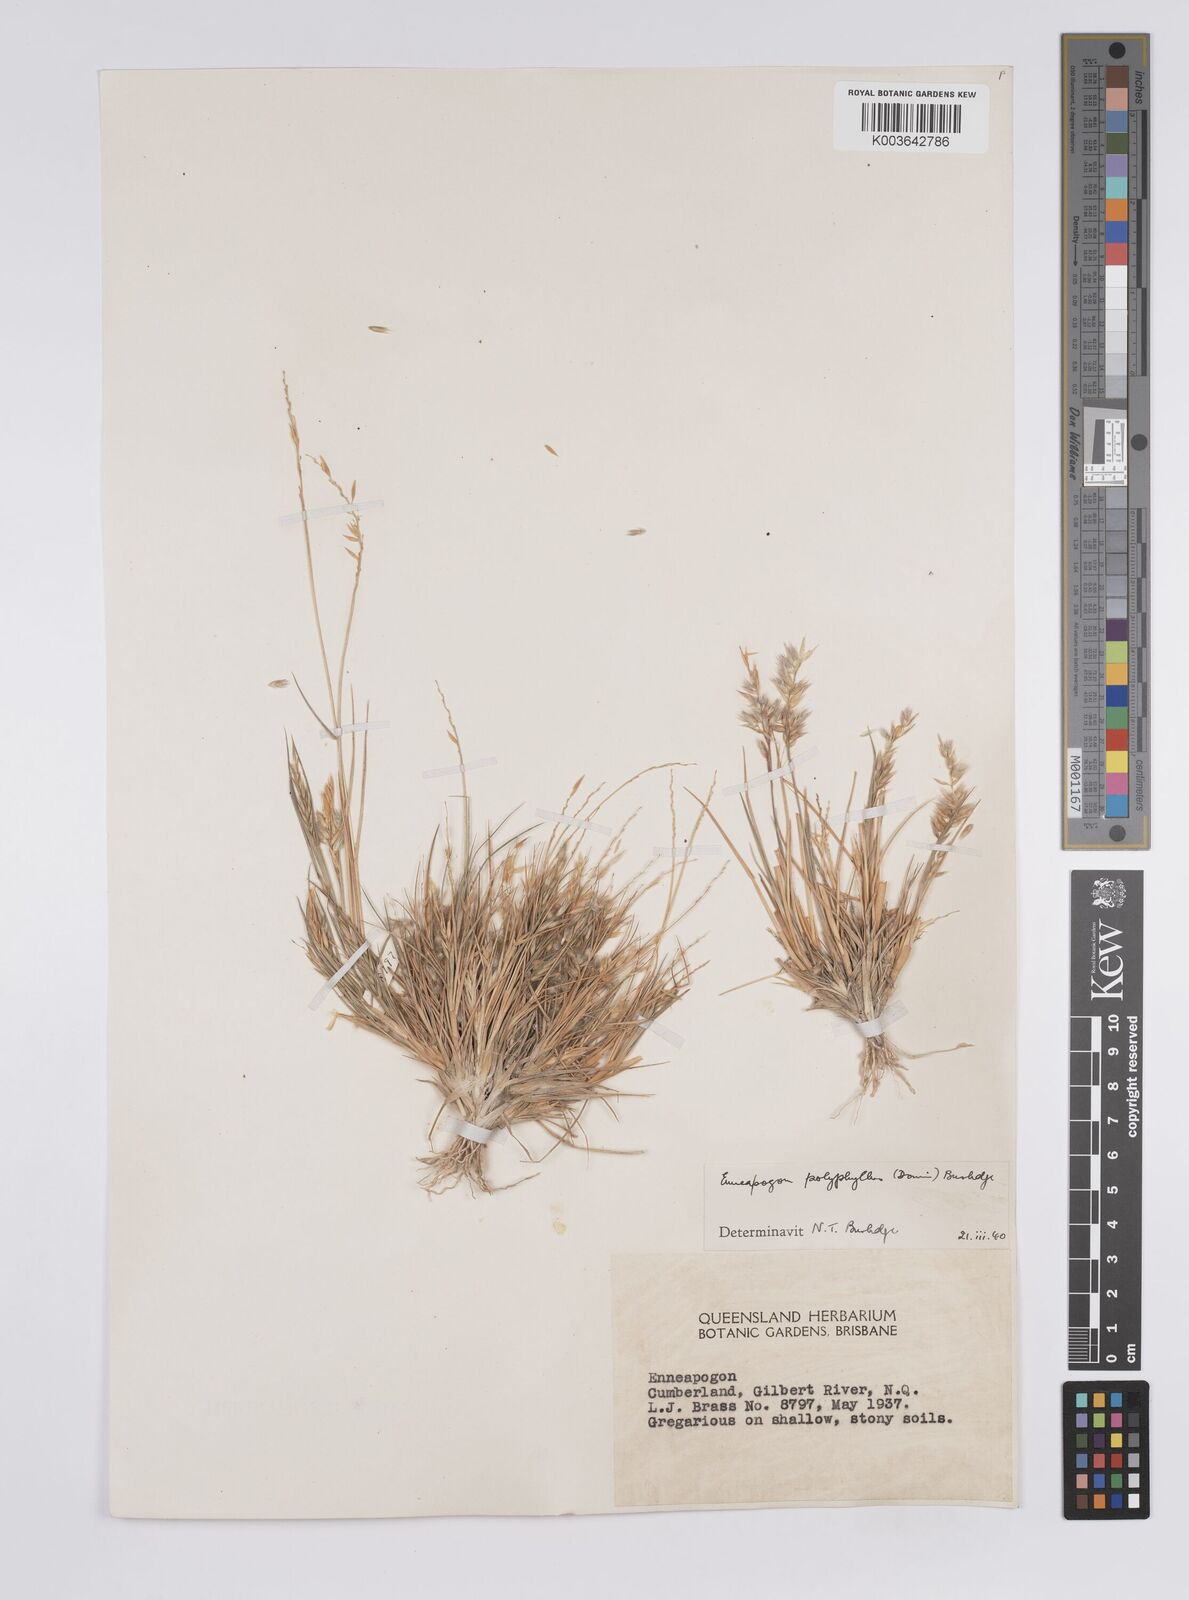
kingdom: Plantae
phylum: Tracheophyta
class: Liliopsida
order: Poales
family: Poaceae
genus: Enneapogon
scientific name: Enneapogon polyphyllus
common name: Leafy nineawn
